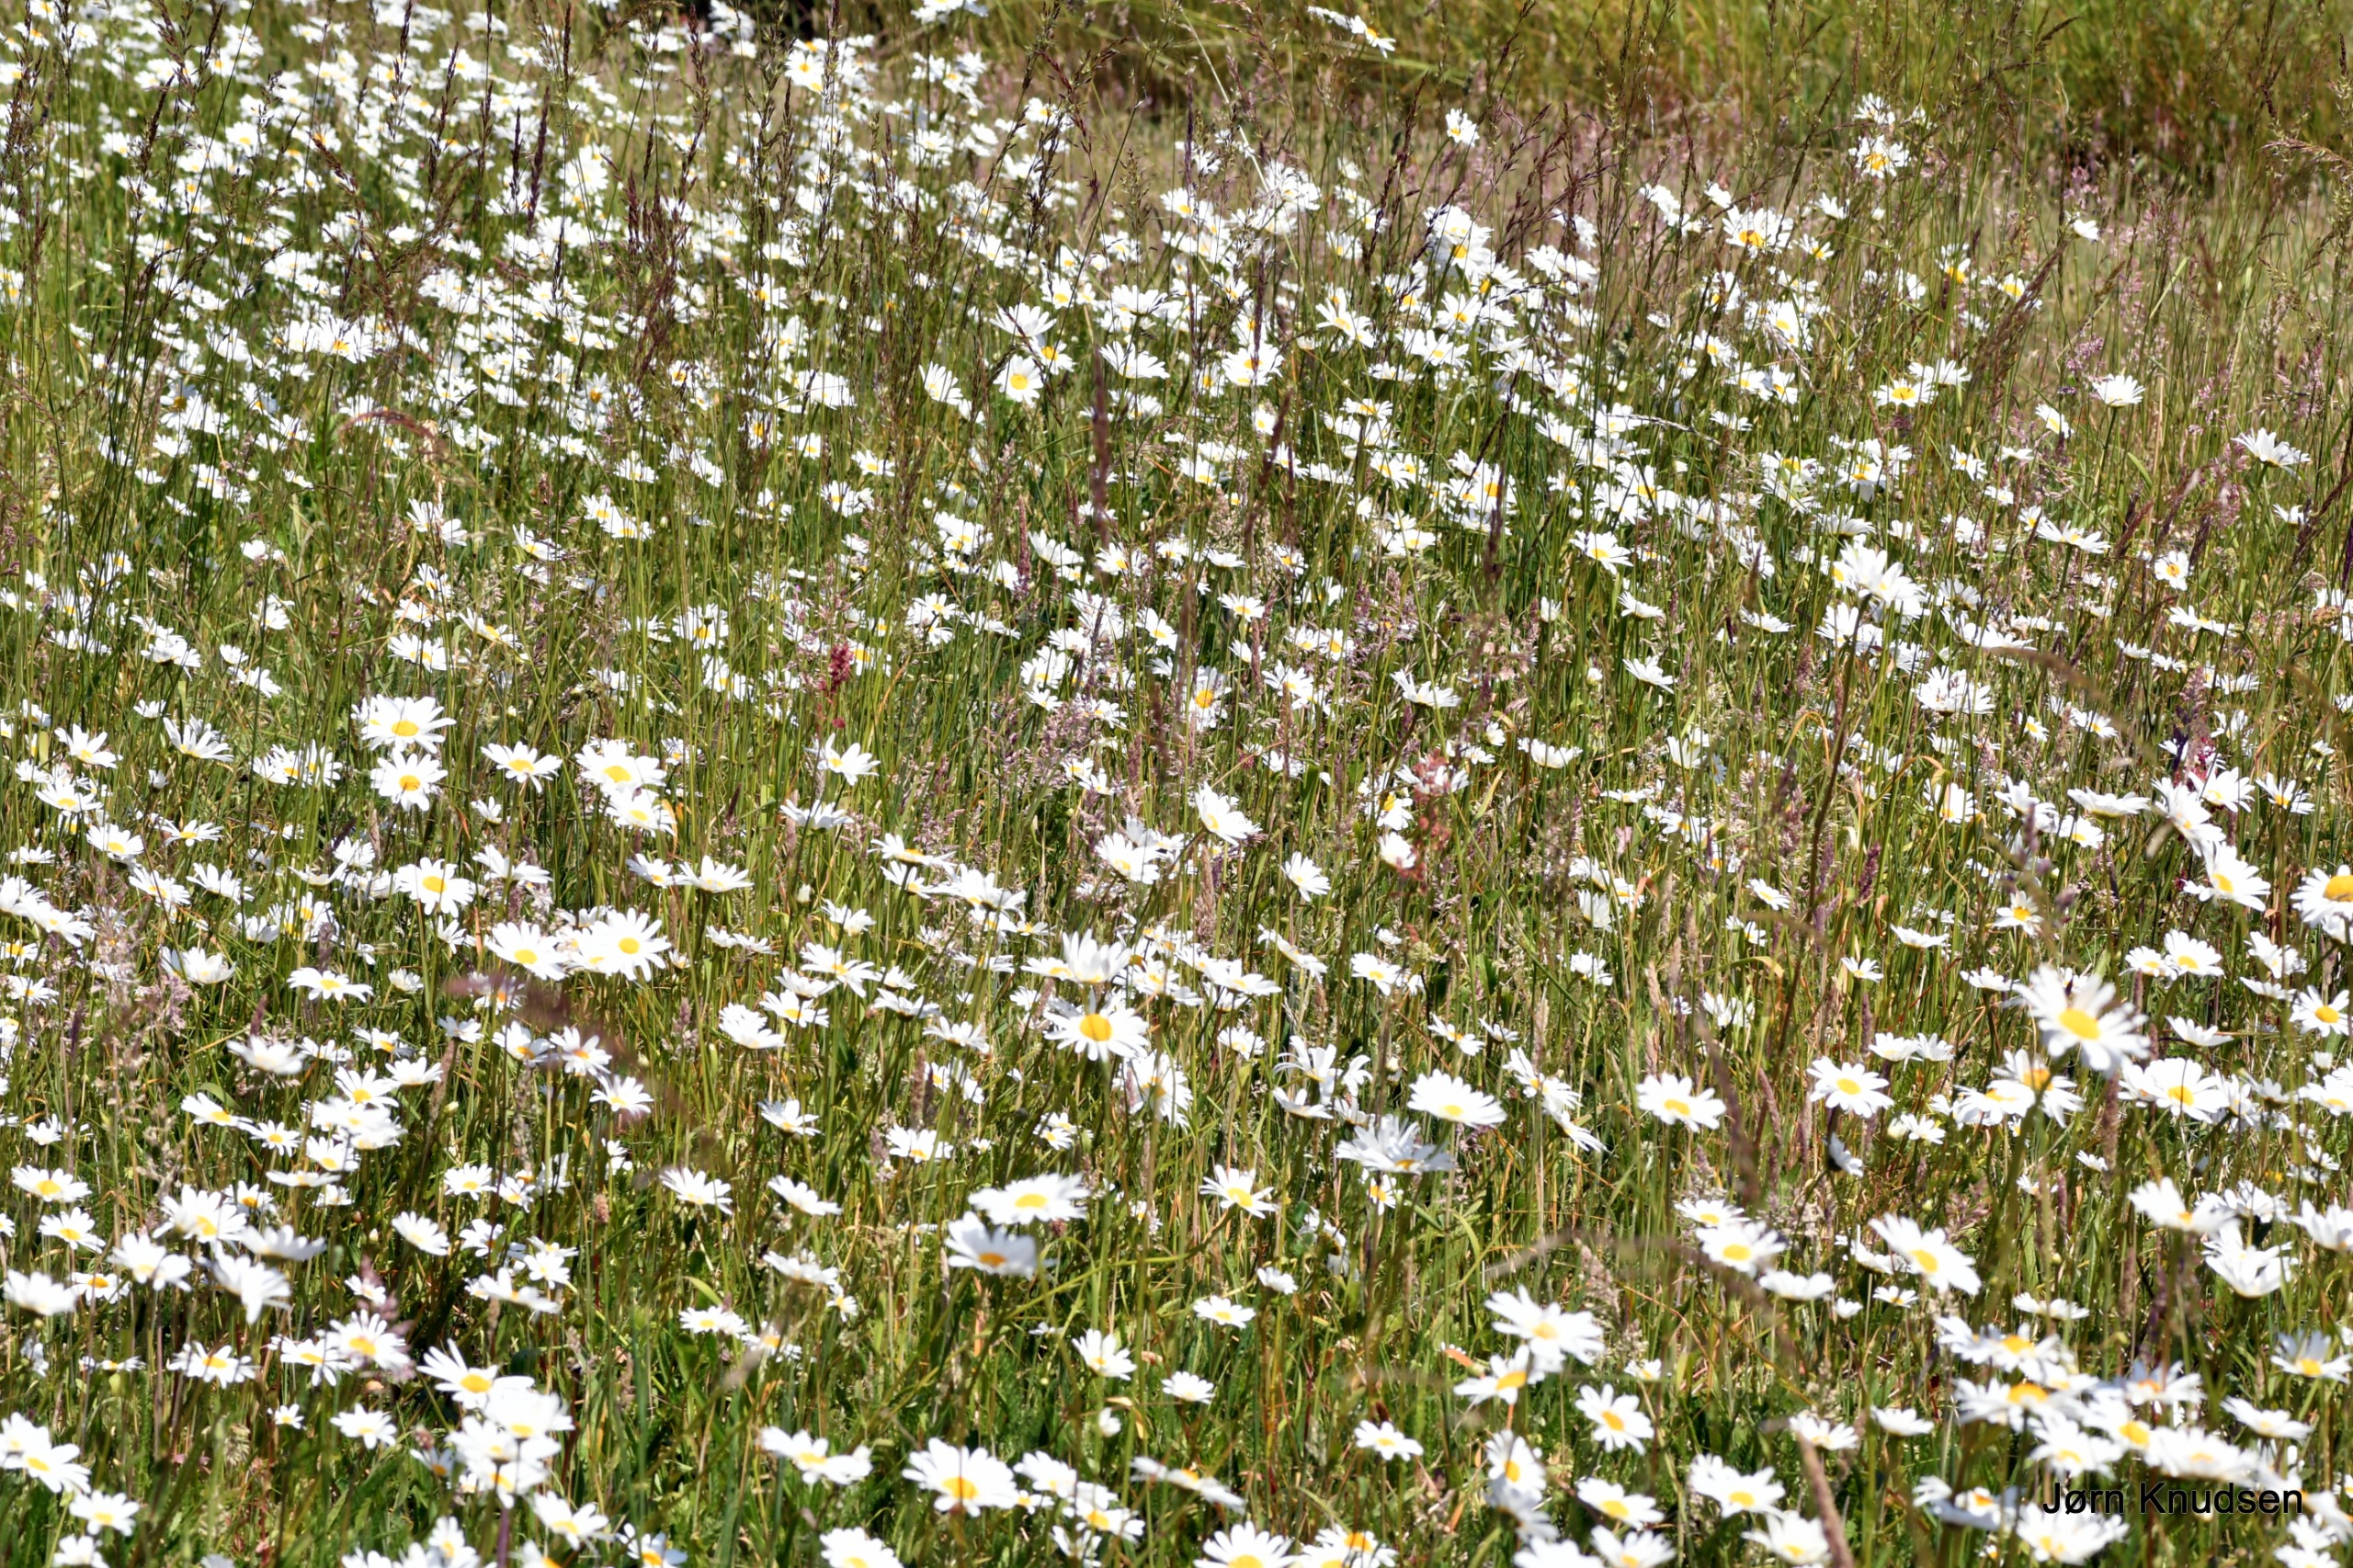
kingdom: Plantae
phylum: Tracheophyta
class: Magnoliopsida
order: Asterales
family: Asteraceae
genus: Leucanthemum
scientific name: Leucanthemum vulgare
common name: Hvid okseøje
